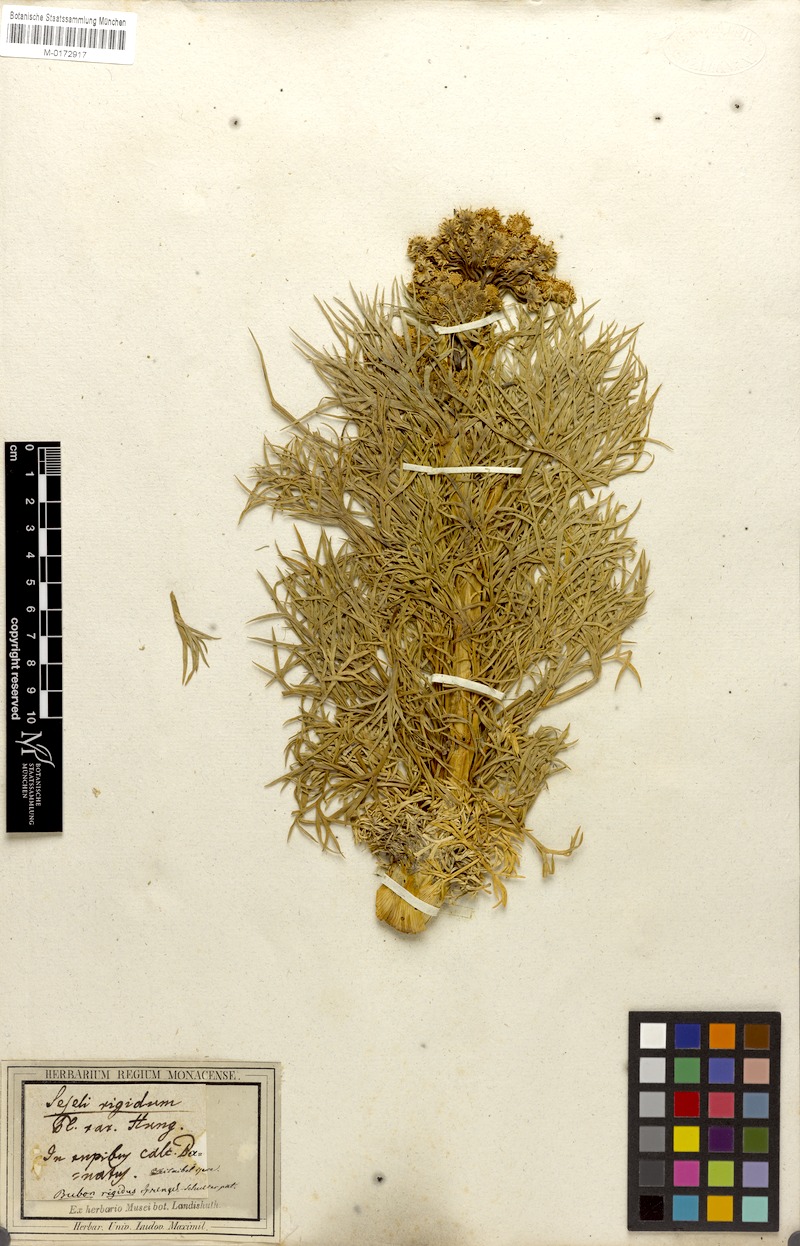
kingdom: Plantae
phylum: Tracheophyta
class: Magnoliopsida
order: Apiales
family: Apiaceae
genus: Seseli
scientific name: Seseli rigidum
